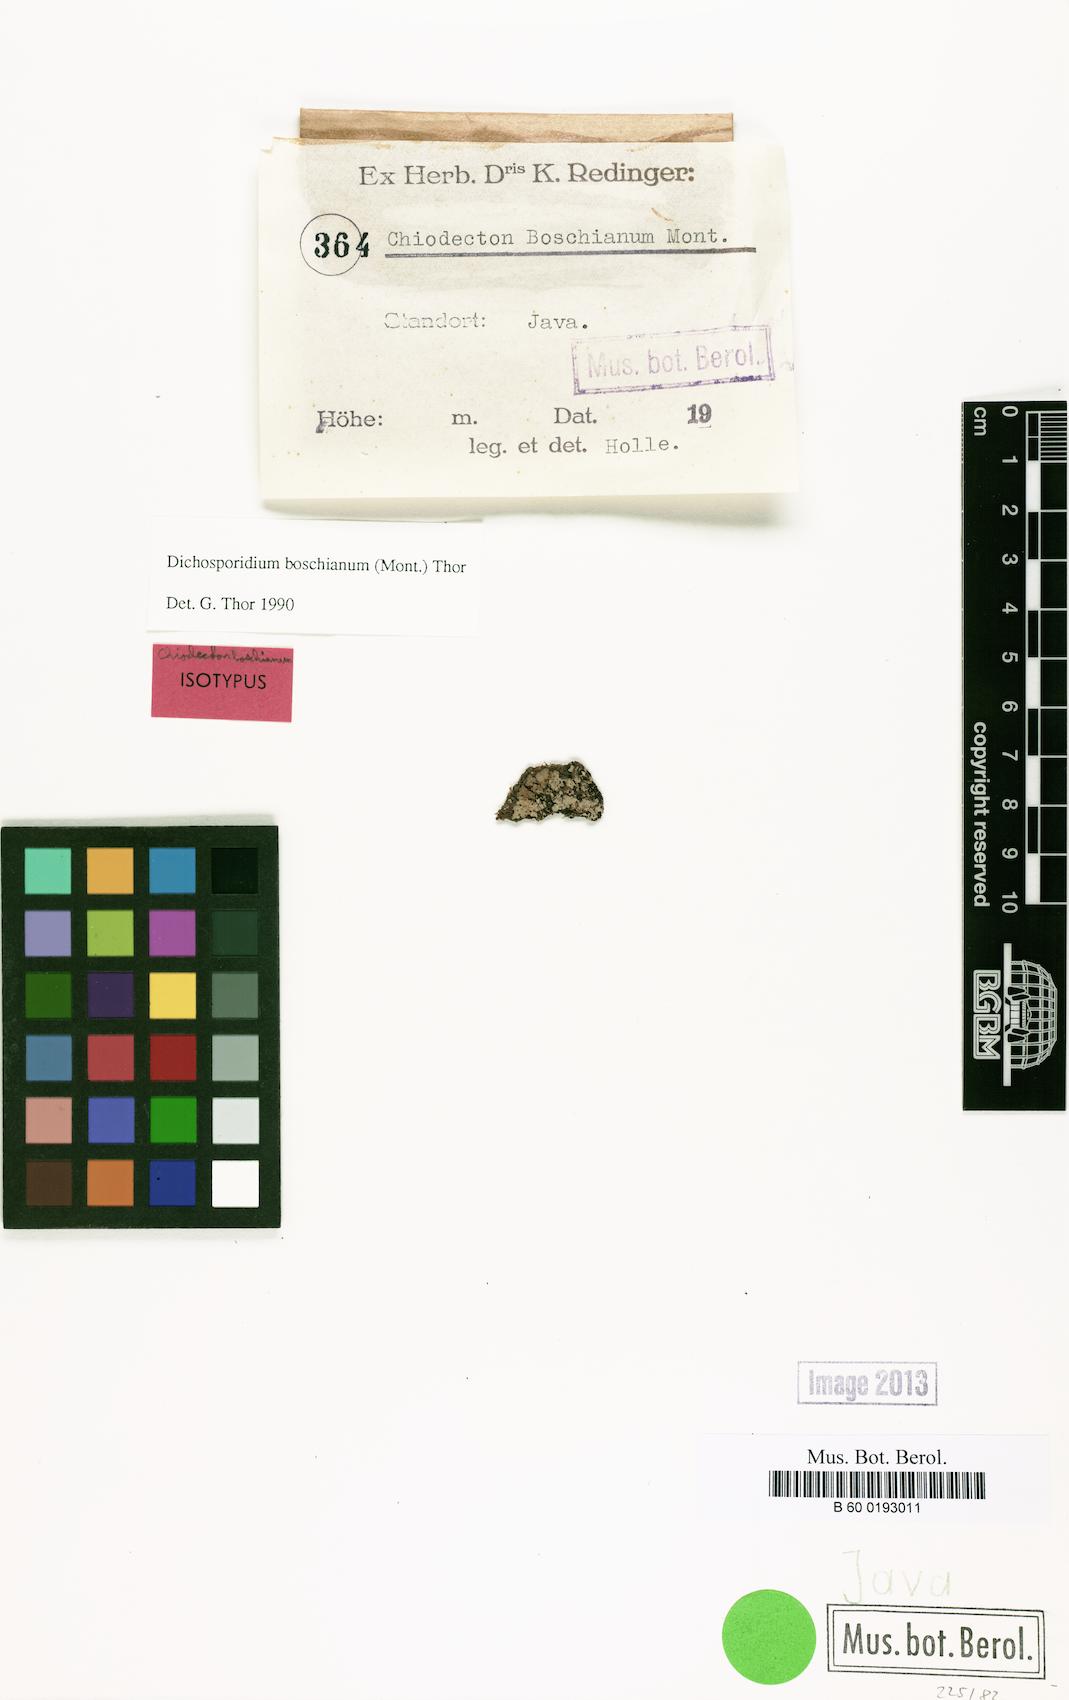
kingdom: Fungi
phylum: Ascomycota
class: Arthoniomycetes
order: Arthoniales
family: Roccellaceae
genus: Dichosporidium
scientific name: Dichosporidium boschianum
